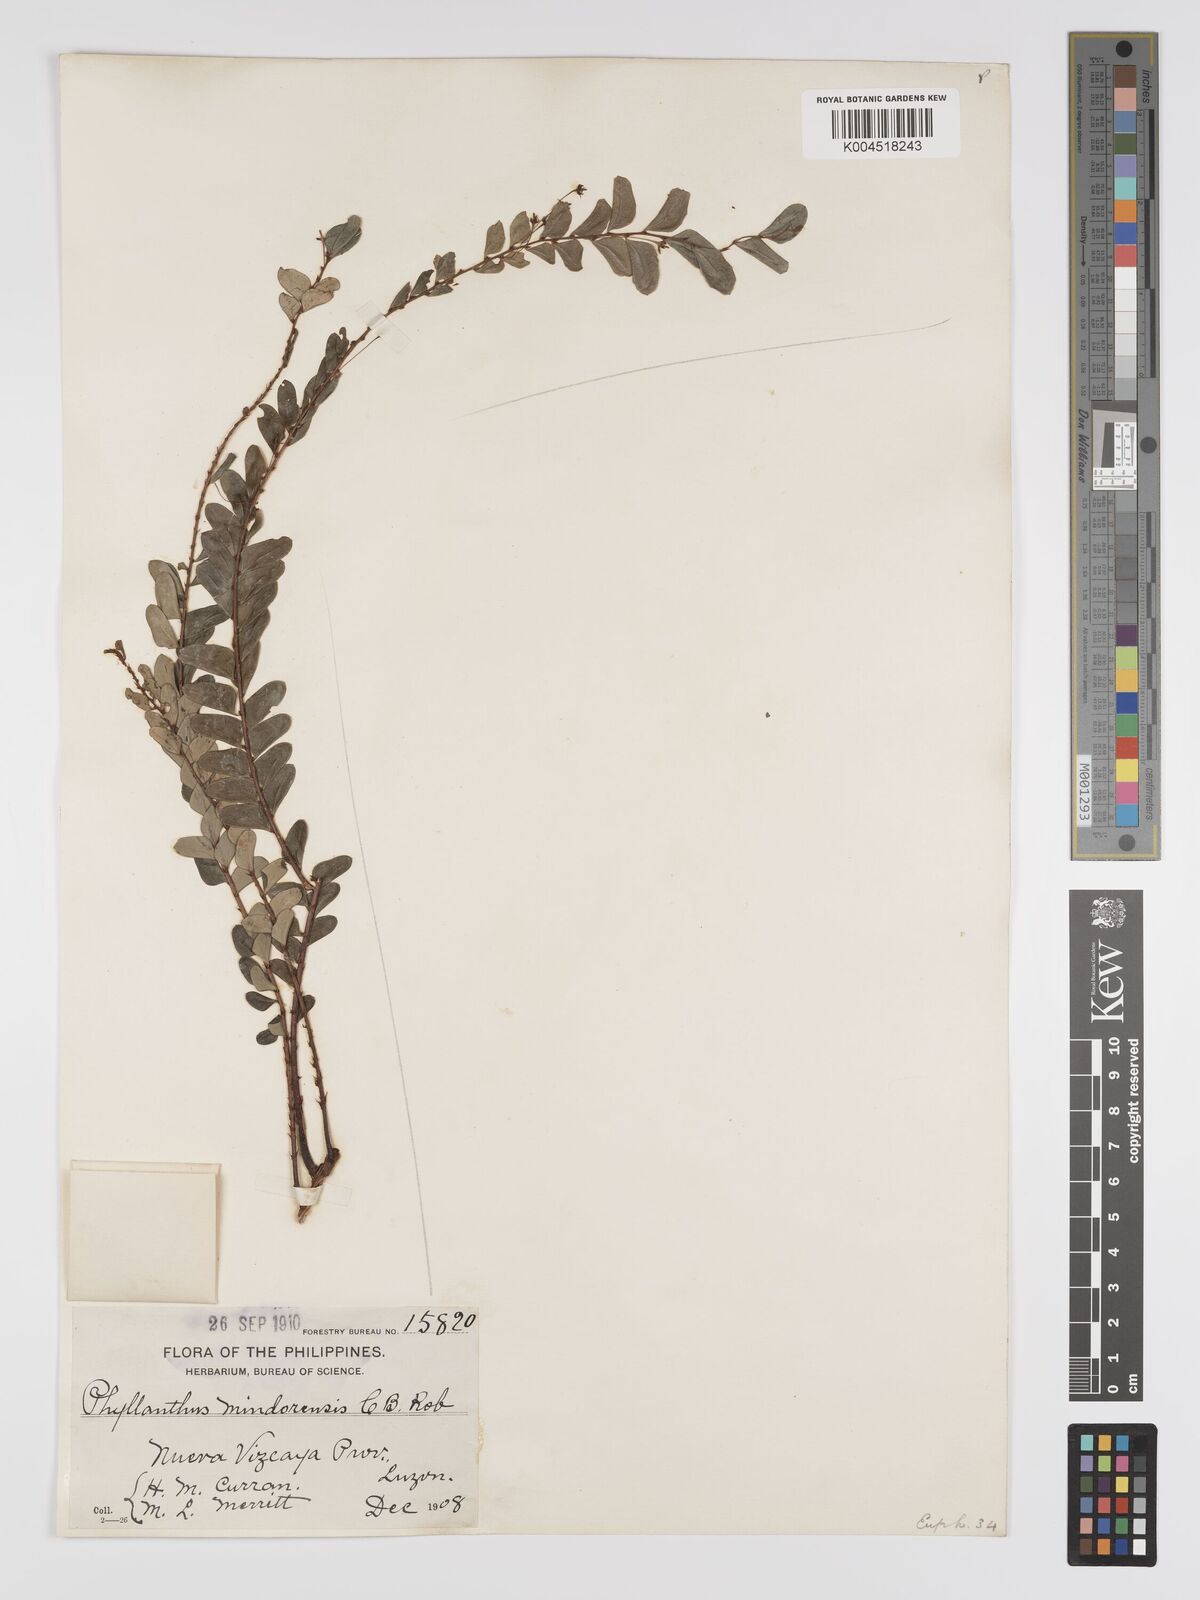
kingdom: Plantae
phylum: Tracheophyta
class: Magnoliopsida
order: Malpighiales
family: Phyllanthaceae
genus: Phyllanthus
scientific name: Phyllanthus celebicus
